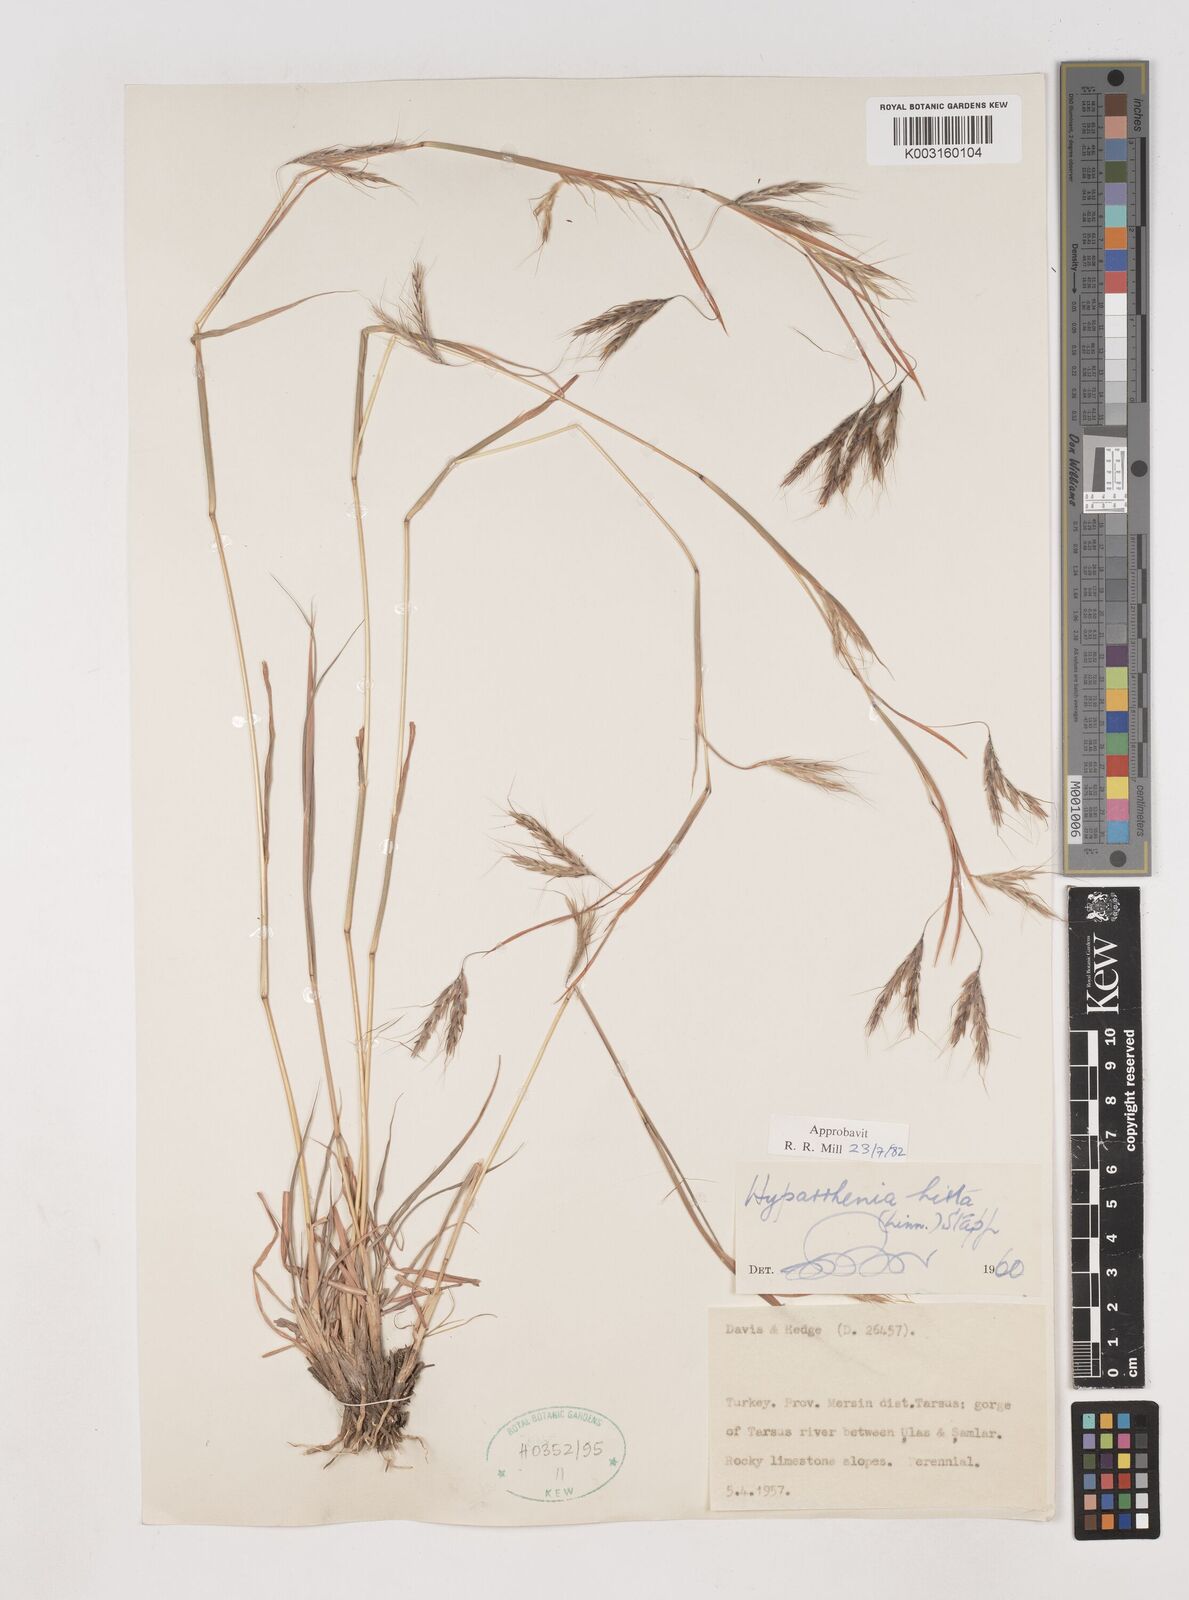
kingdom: Plantae
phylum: Tracheophyta
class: Liliopsida
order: Poales
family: Poaceae
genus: Hyparrhenia
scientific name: Hyparrhenia hirta
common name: Thatching grass
